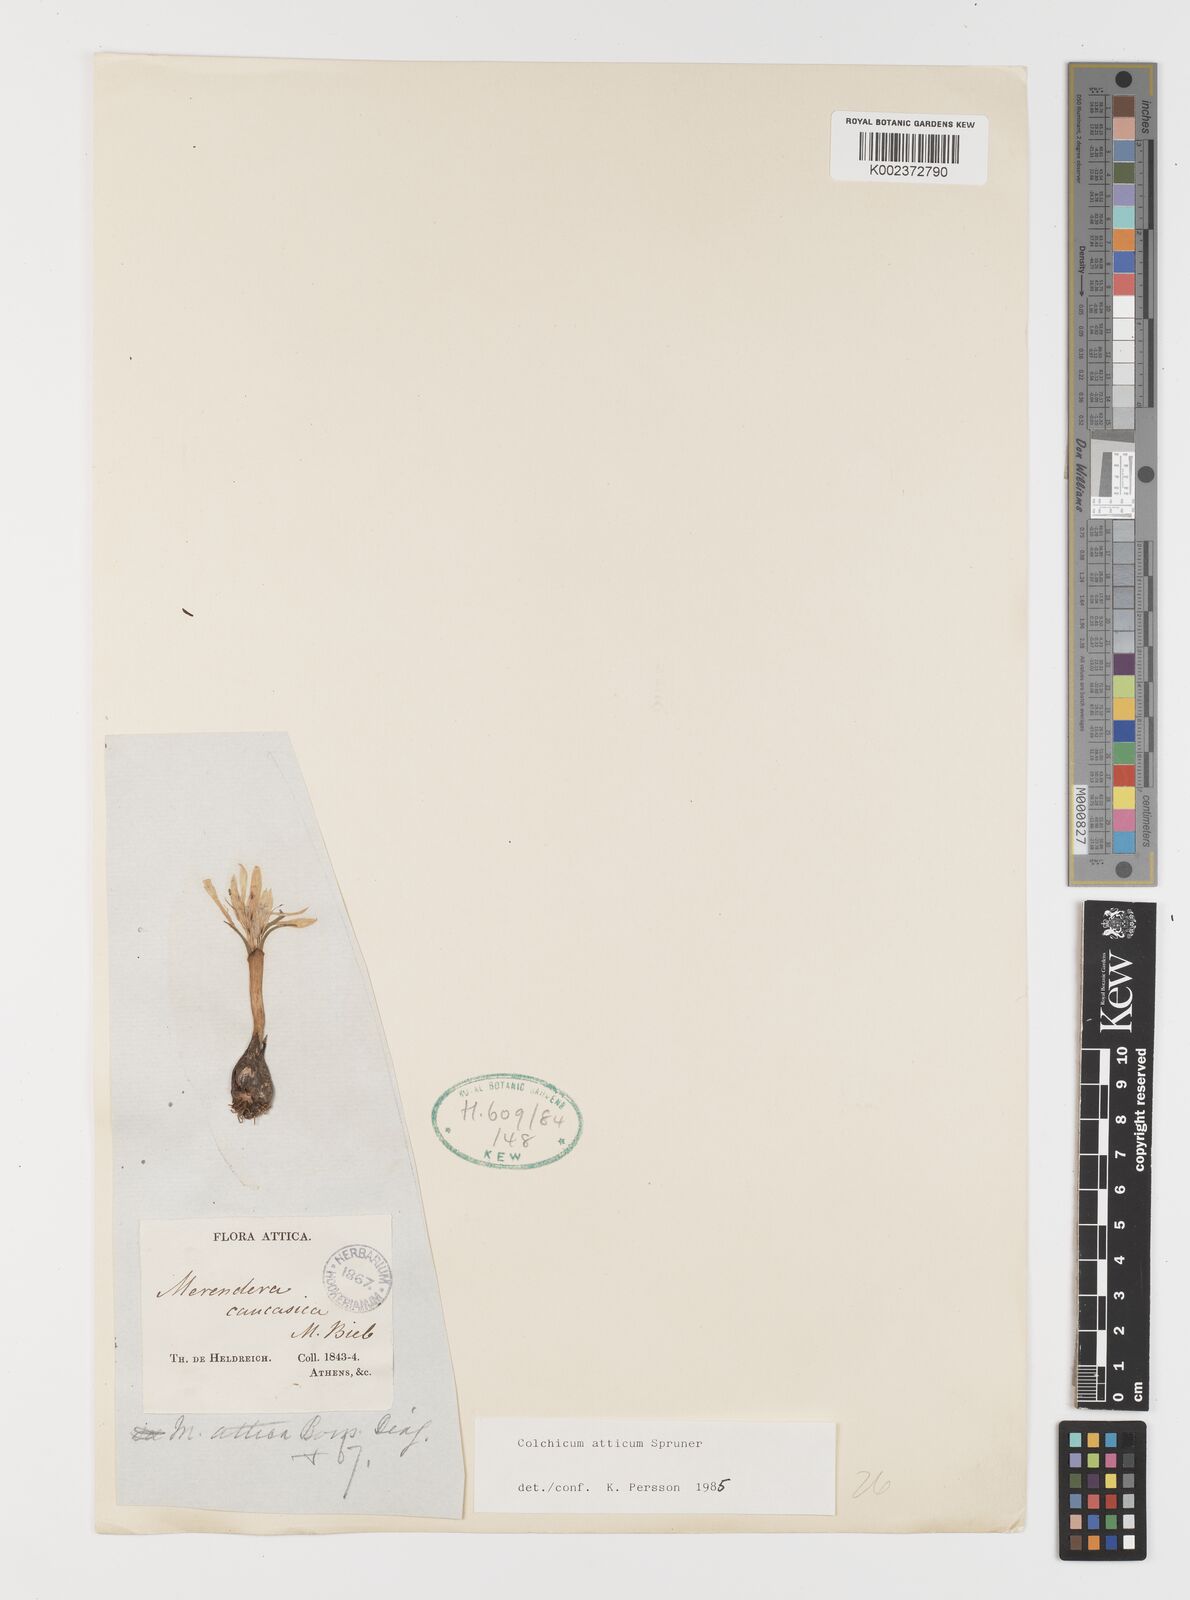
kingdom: Plantae
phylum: Tracheophyta
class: Liliopsida
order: Liliales
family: Colchicaceae
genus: Colchicum
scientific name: Colchicum atticum
